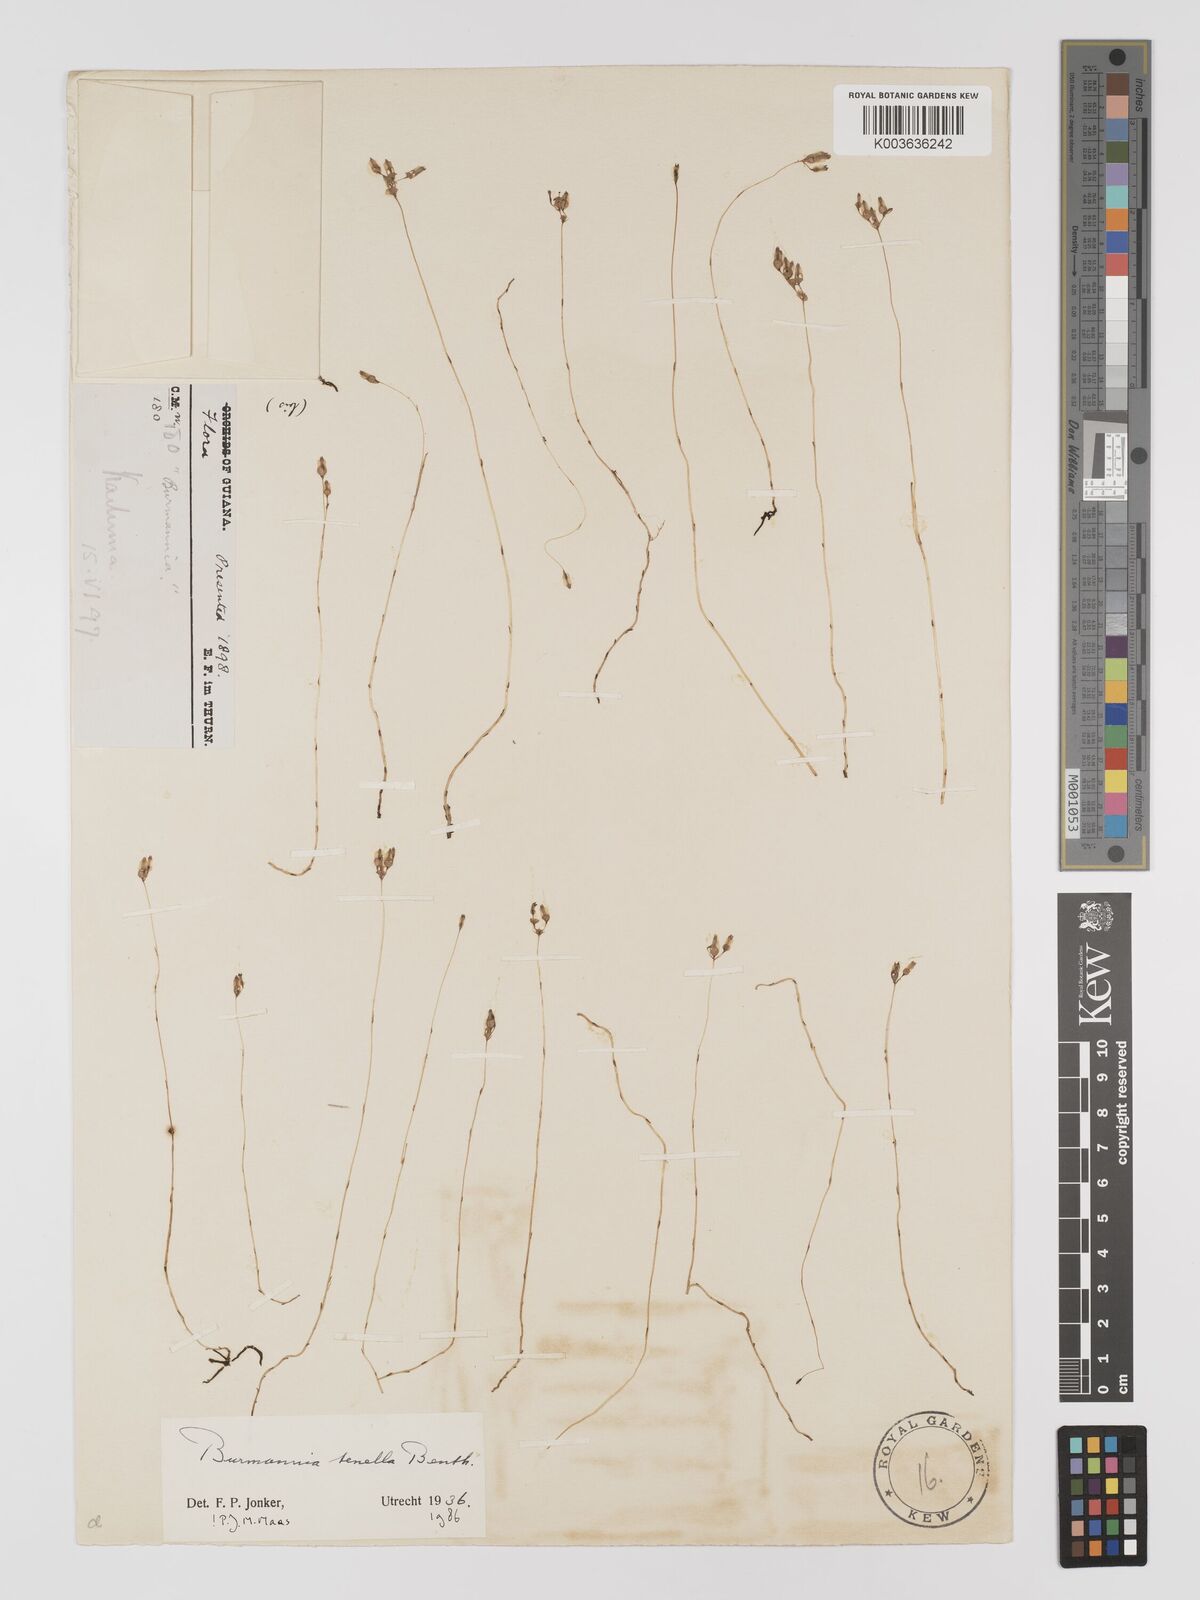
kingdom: Plantae
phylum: Tracheophyta
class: Liliopsida
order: Dioscoreales
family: Burmanniaceae
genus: Burmannia
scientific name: Burmannia tenella
